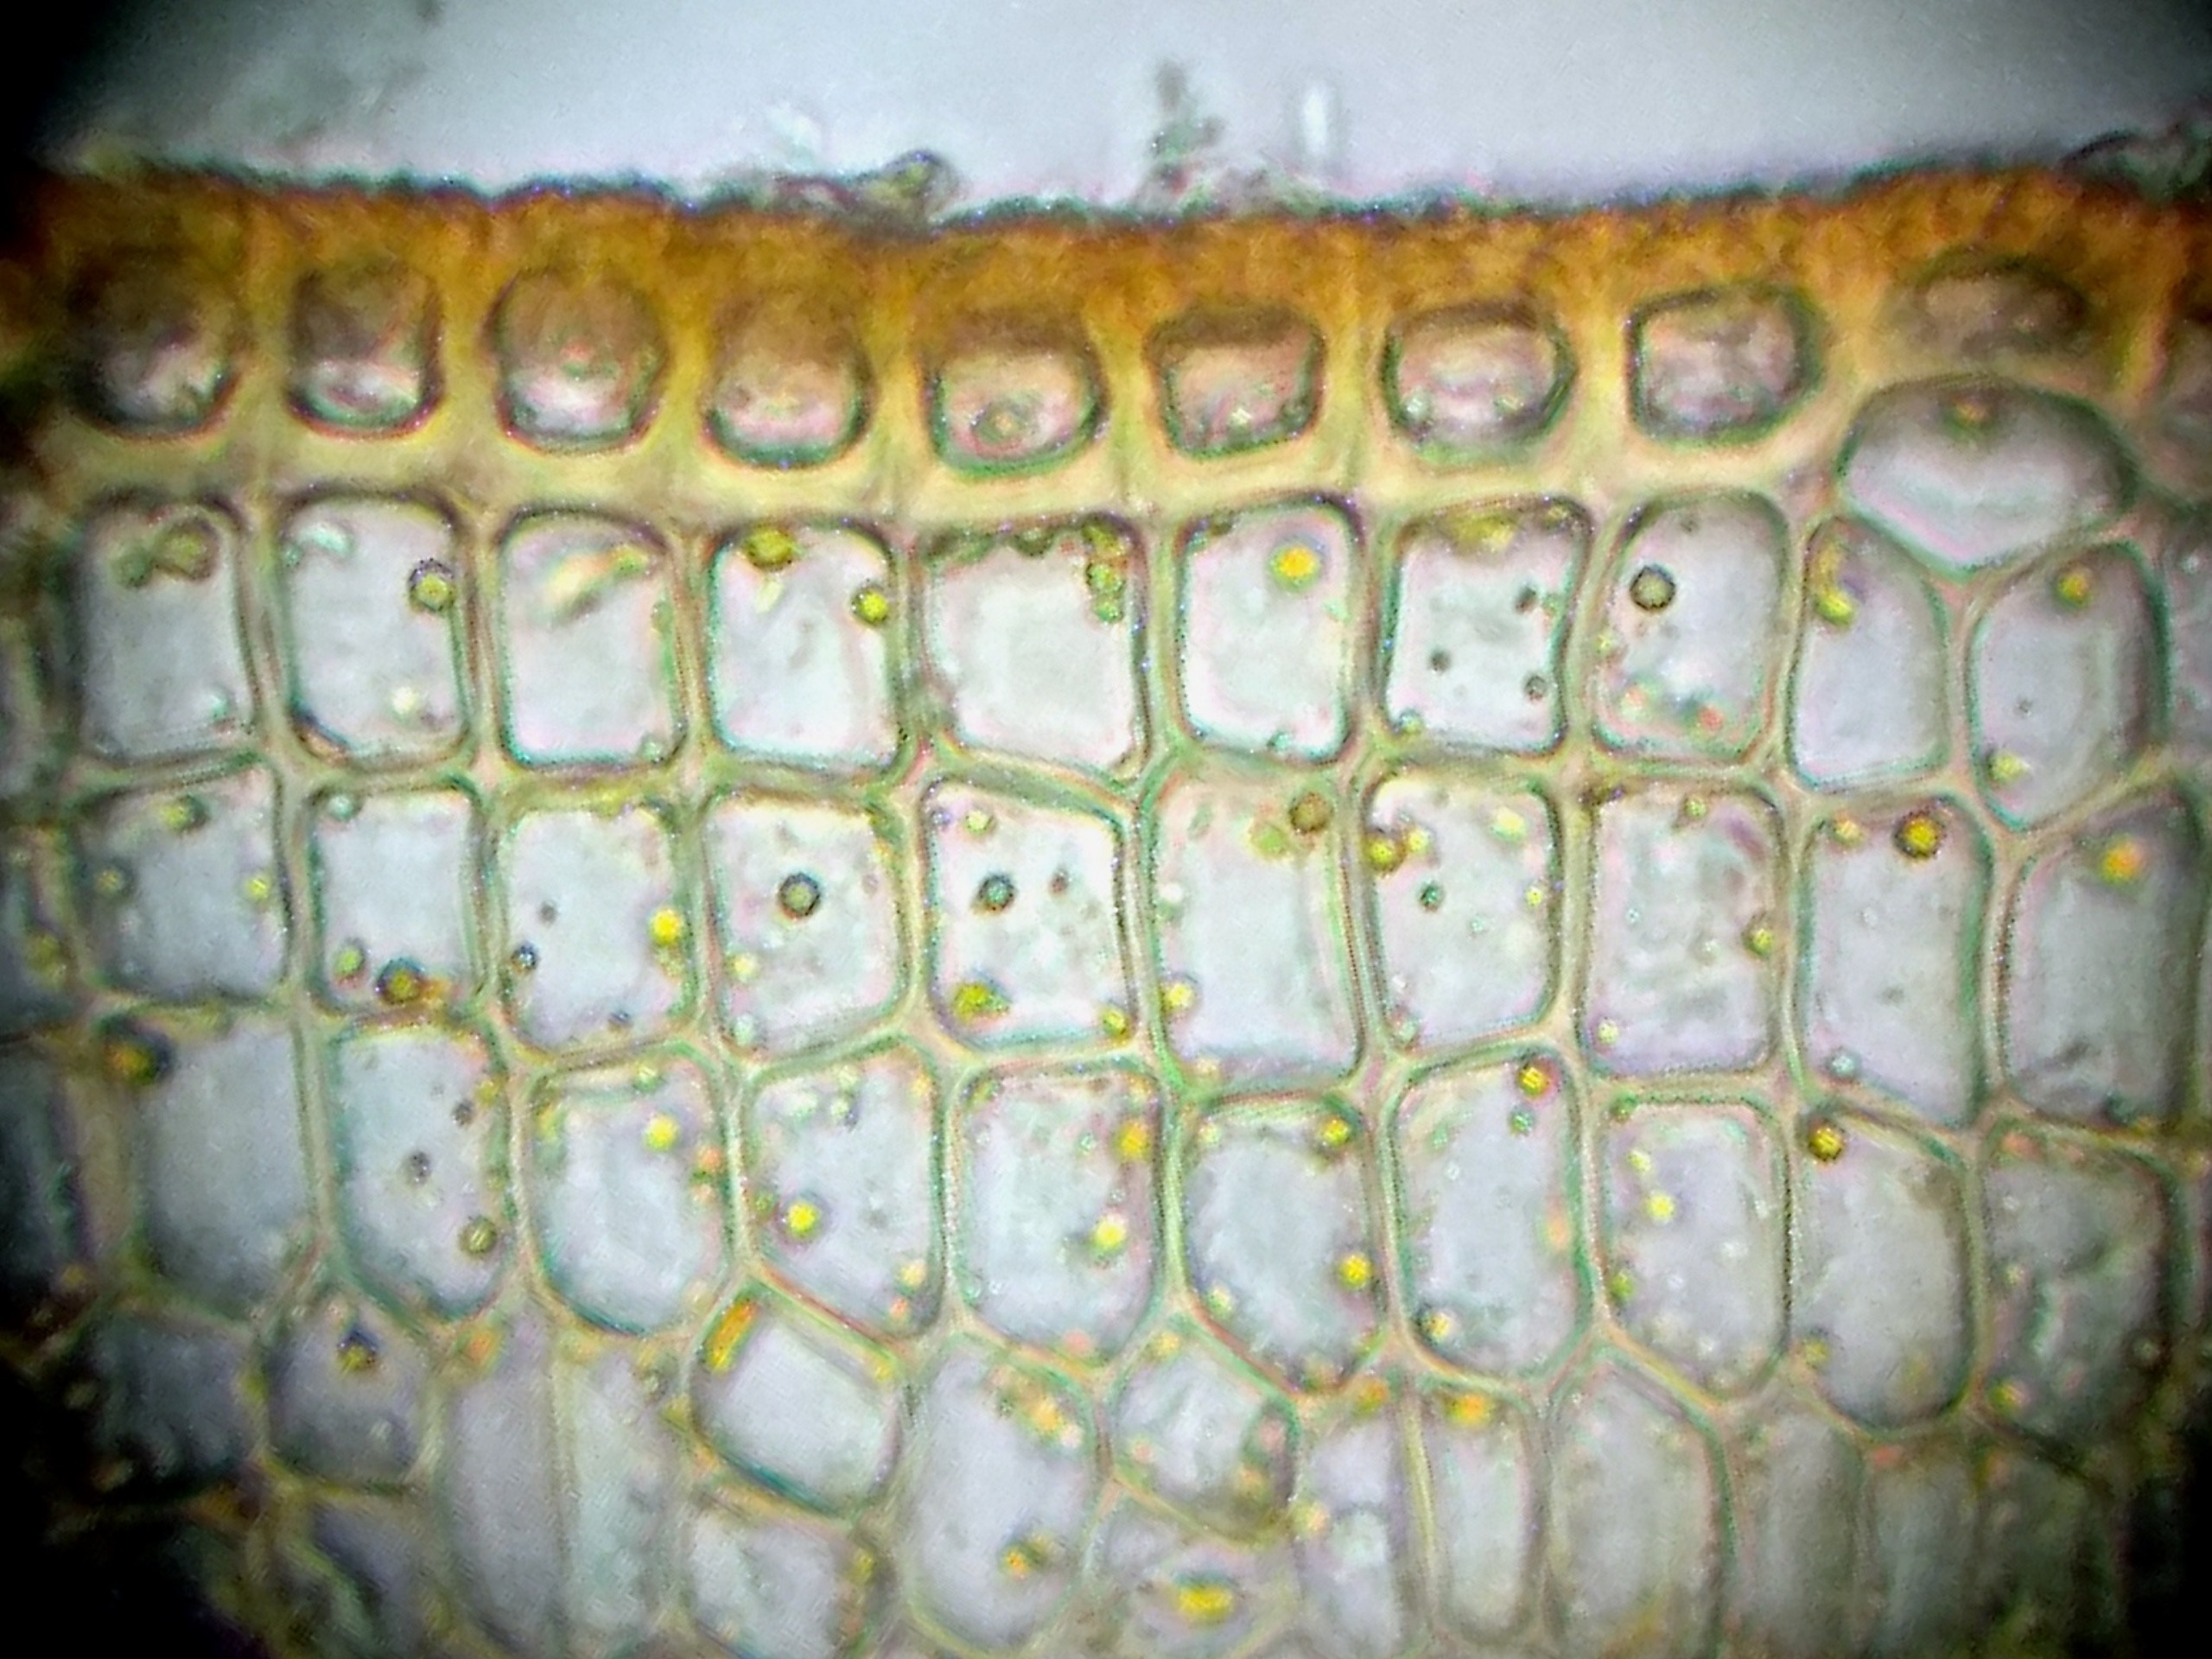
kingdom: Plantae
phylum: Bryophyta
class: Polytrichopsida
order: Polytrichales
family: Polytrichaceae
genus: Pogonatum
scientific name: Pogonatum urnigerum
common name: Stor urnekapsel
